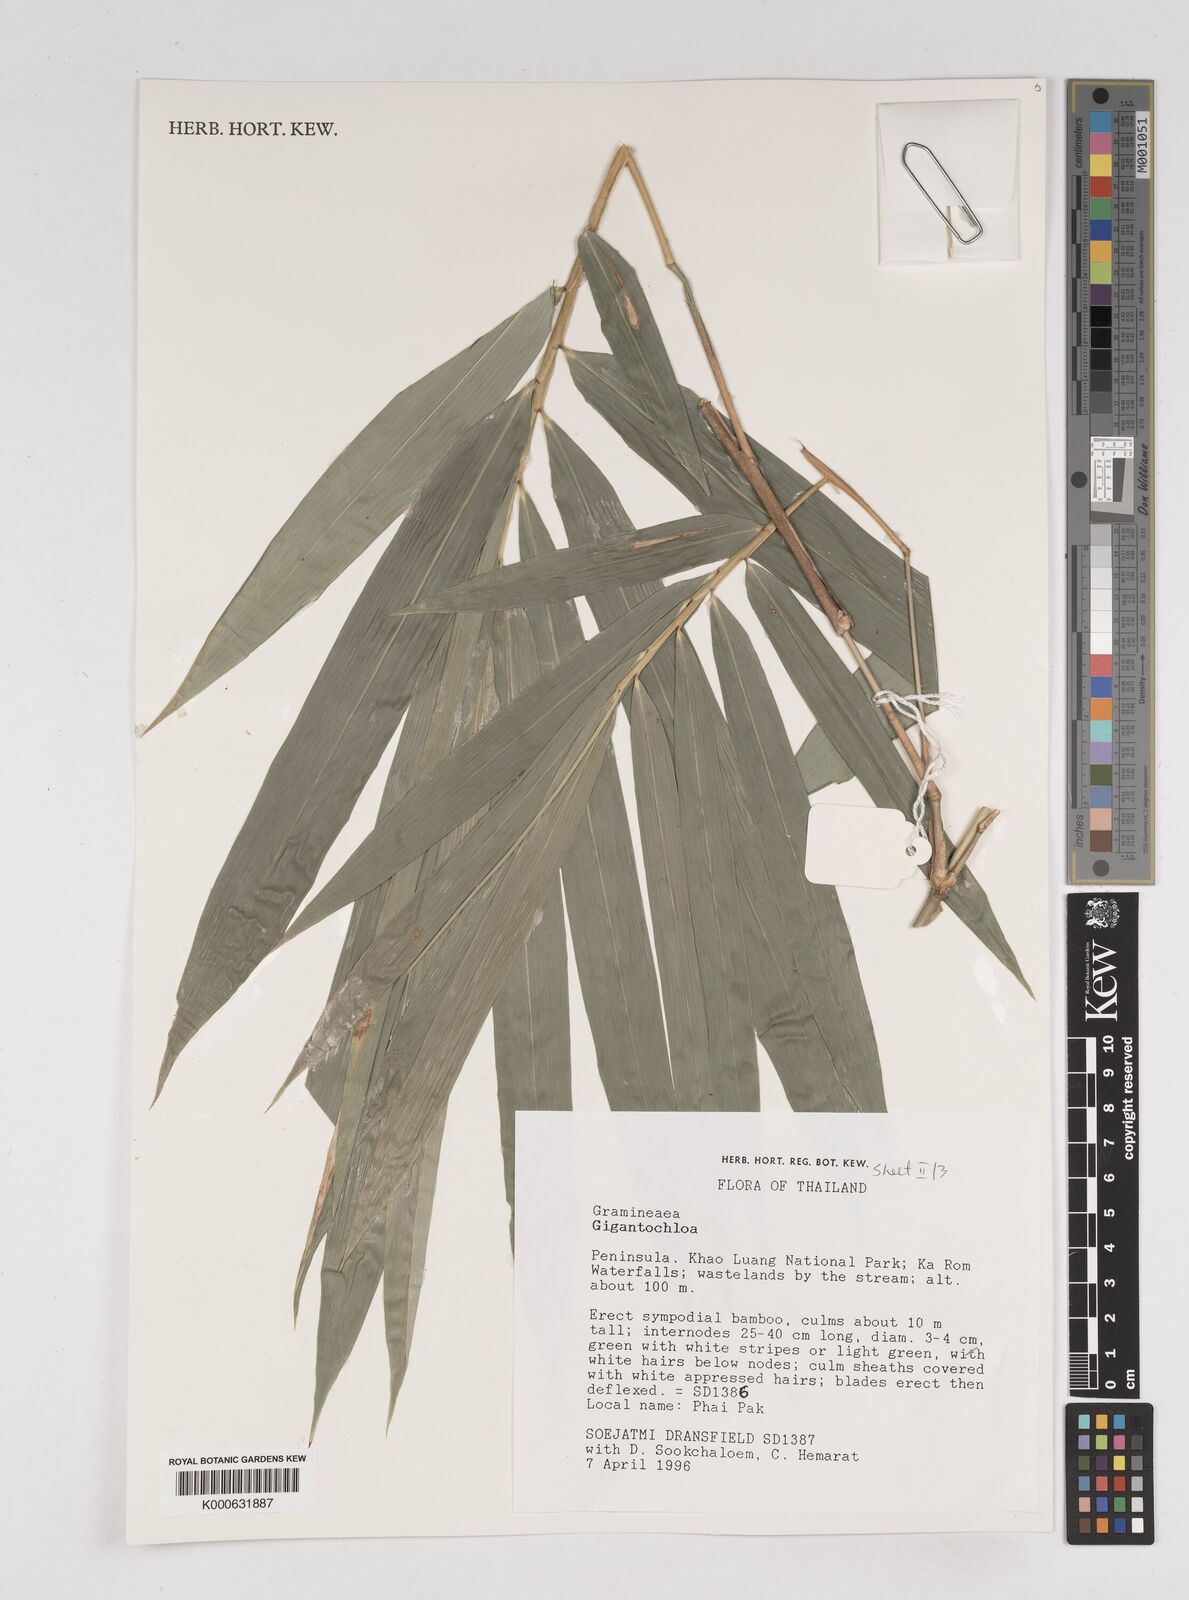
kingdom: Plantae
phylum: Tracheophyta
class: Liliopsida
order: Poales
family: Poaceae
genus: Gigantochloa
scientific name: Gigantochloa
